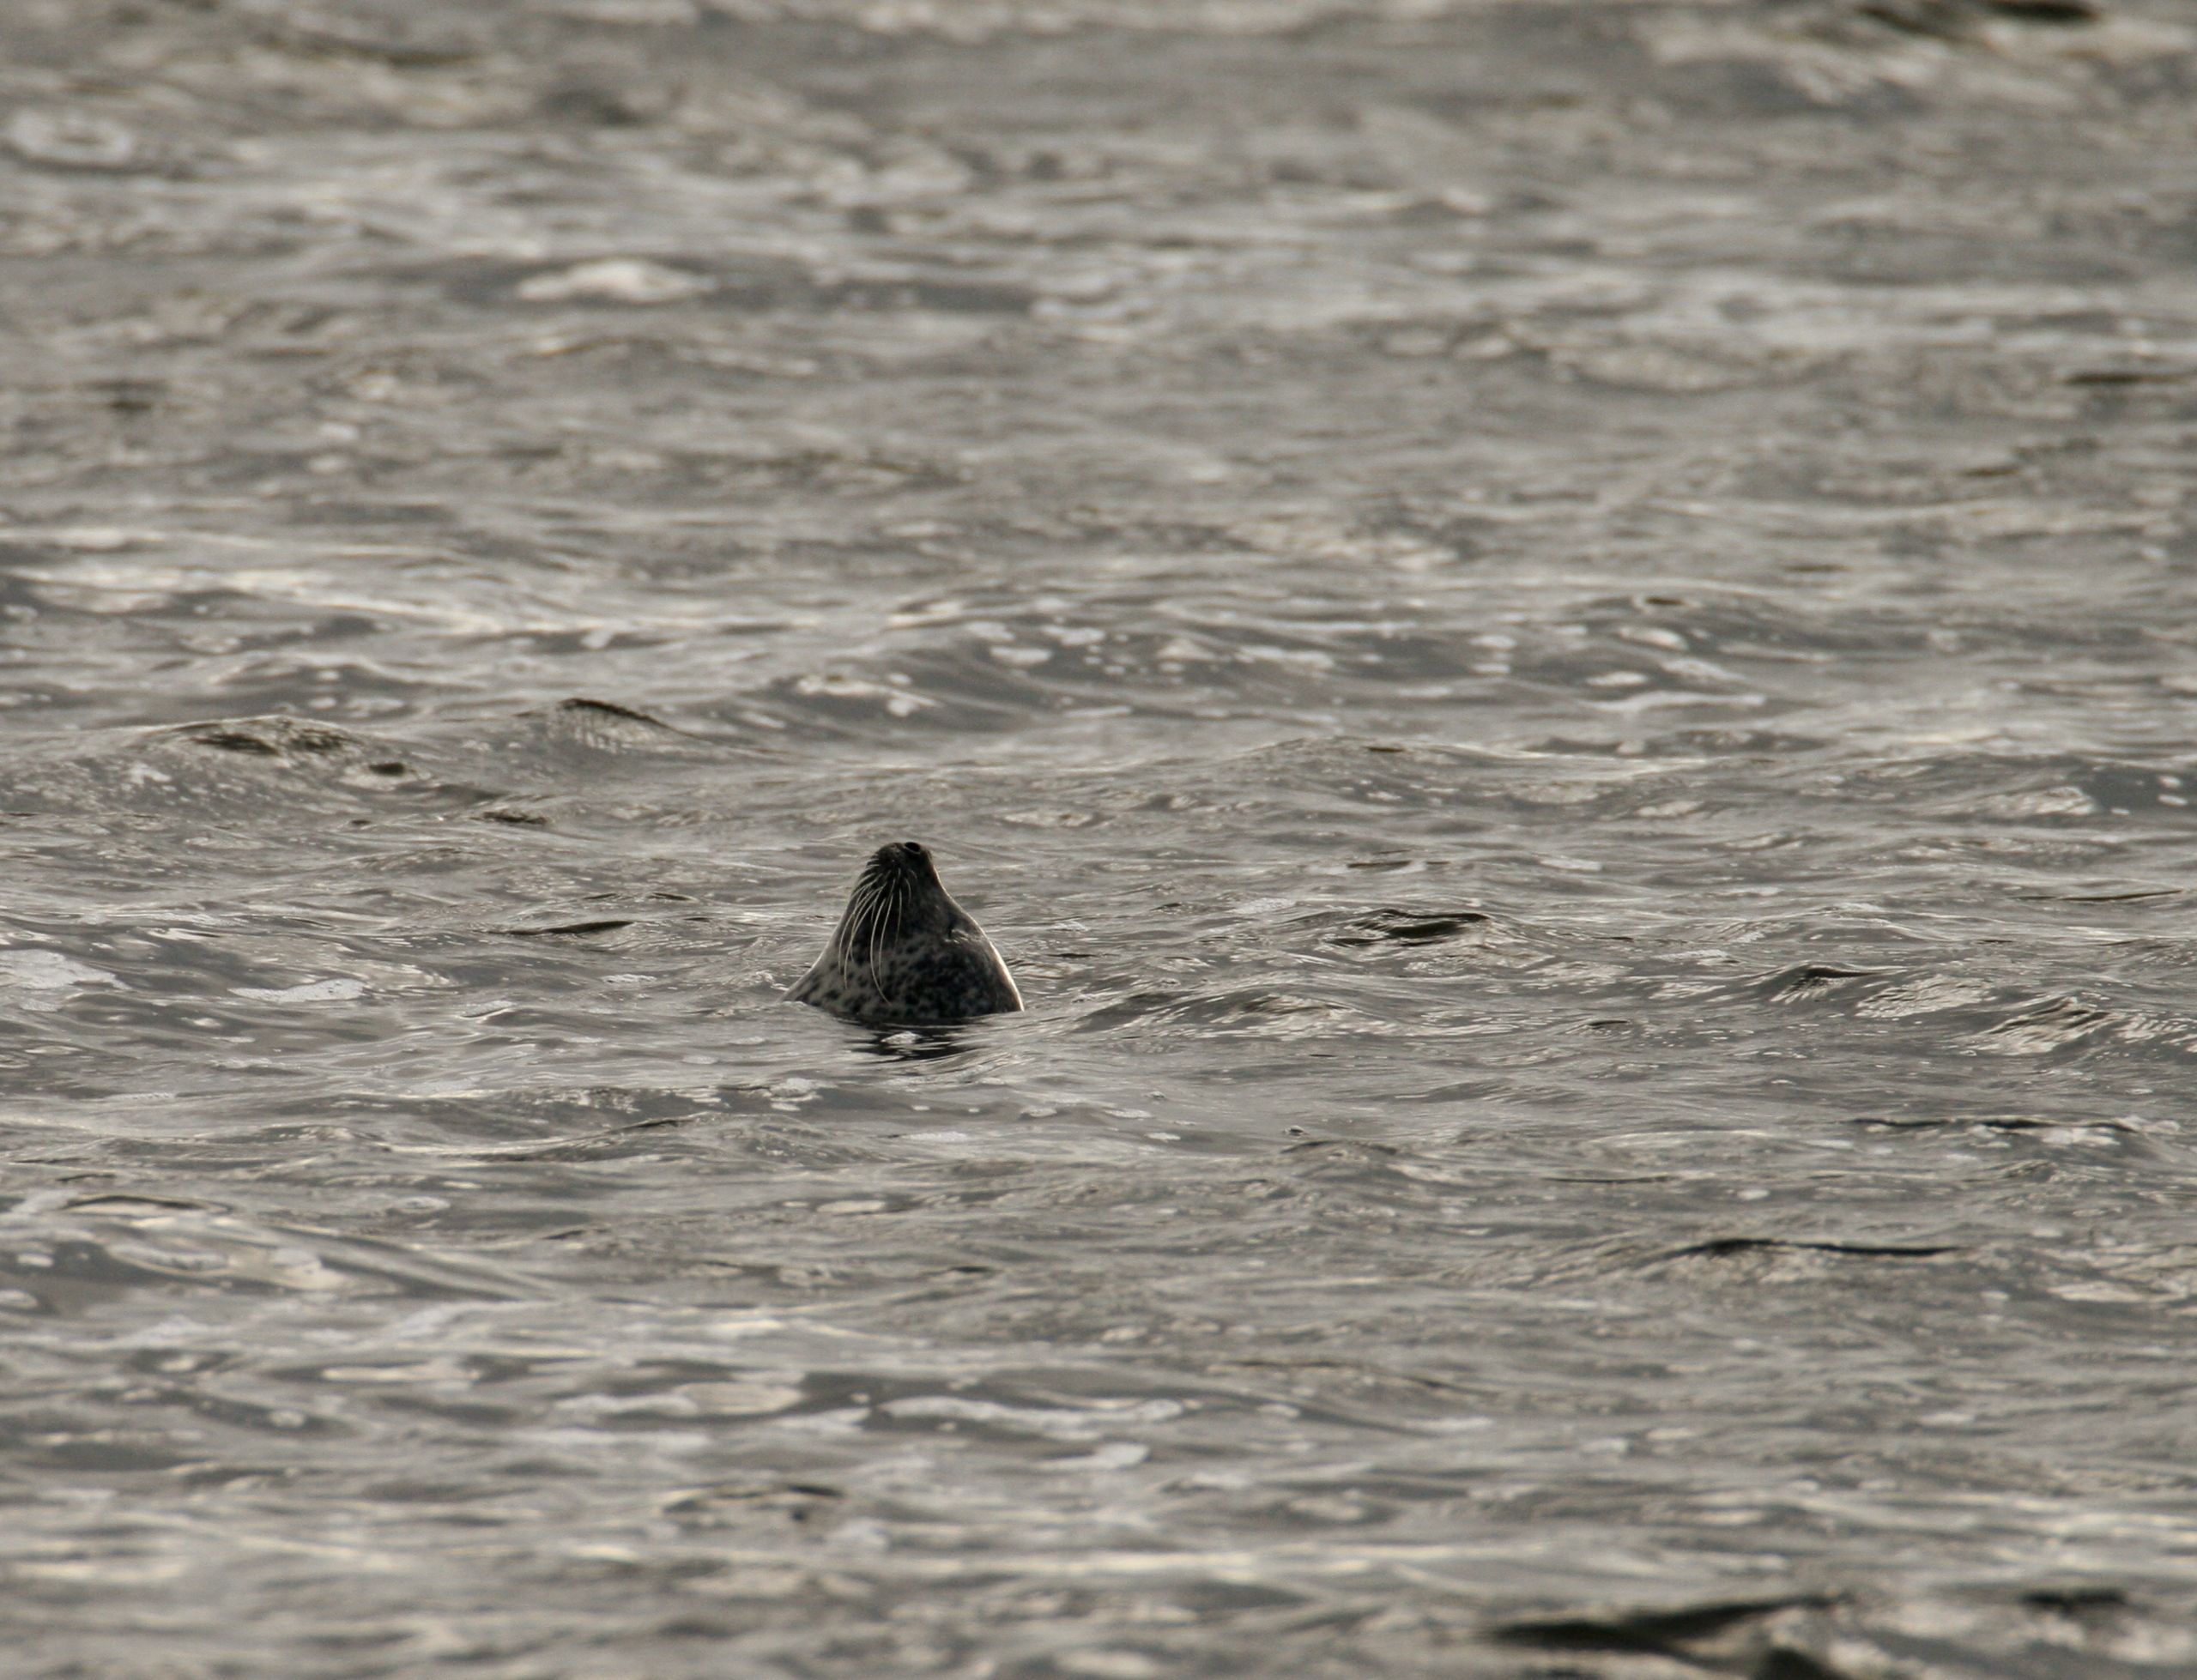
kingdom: Animalia
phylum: Chordata
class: Mammalia
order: Carnivora
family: Phocidae
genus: Phoca
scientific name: Phoca vitulina
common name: Spættet sæl
